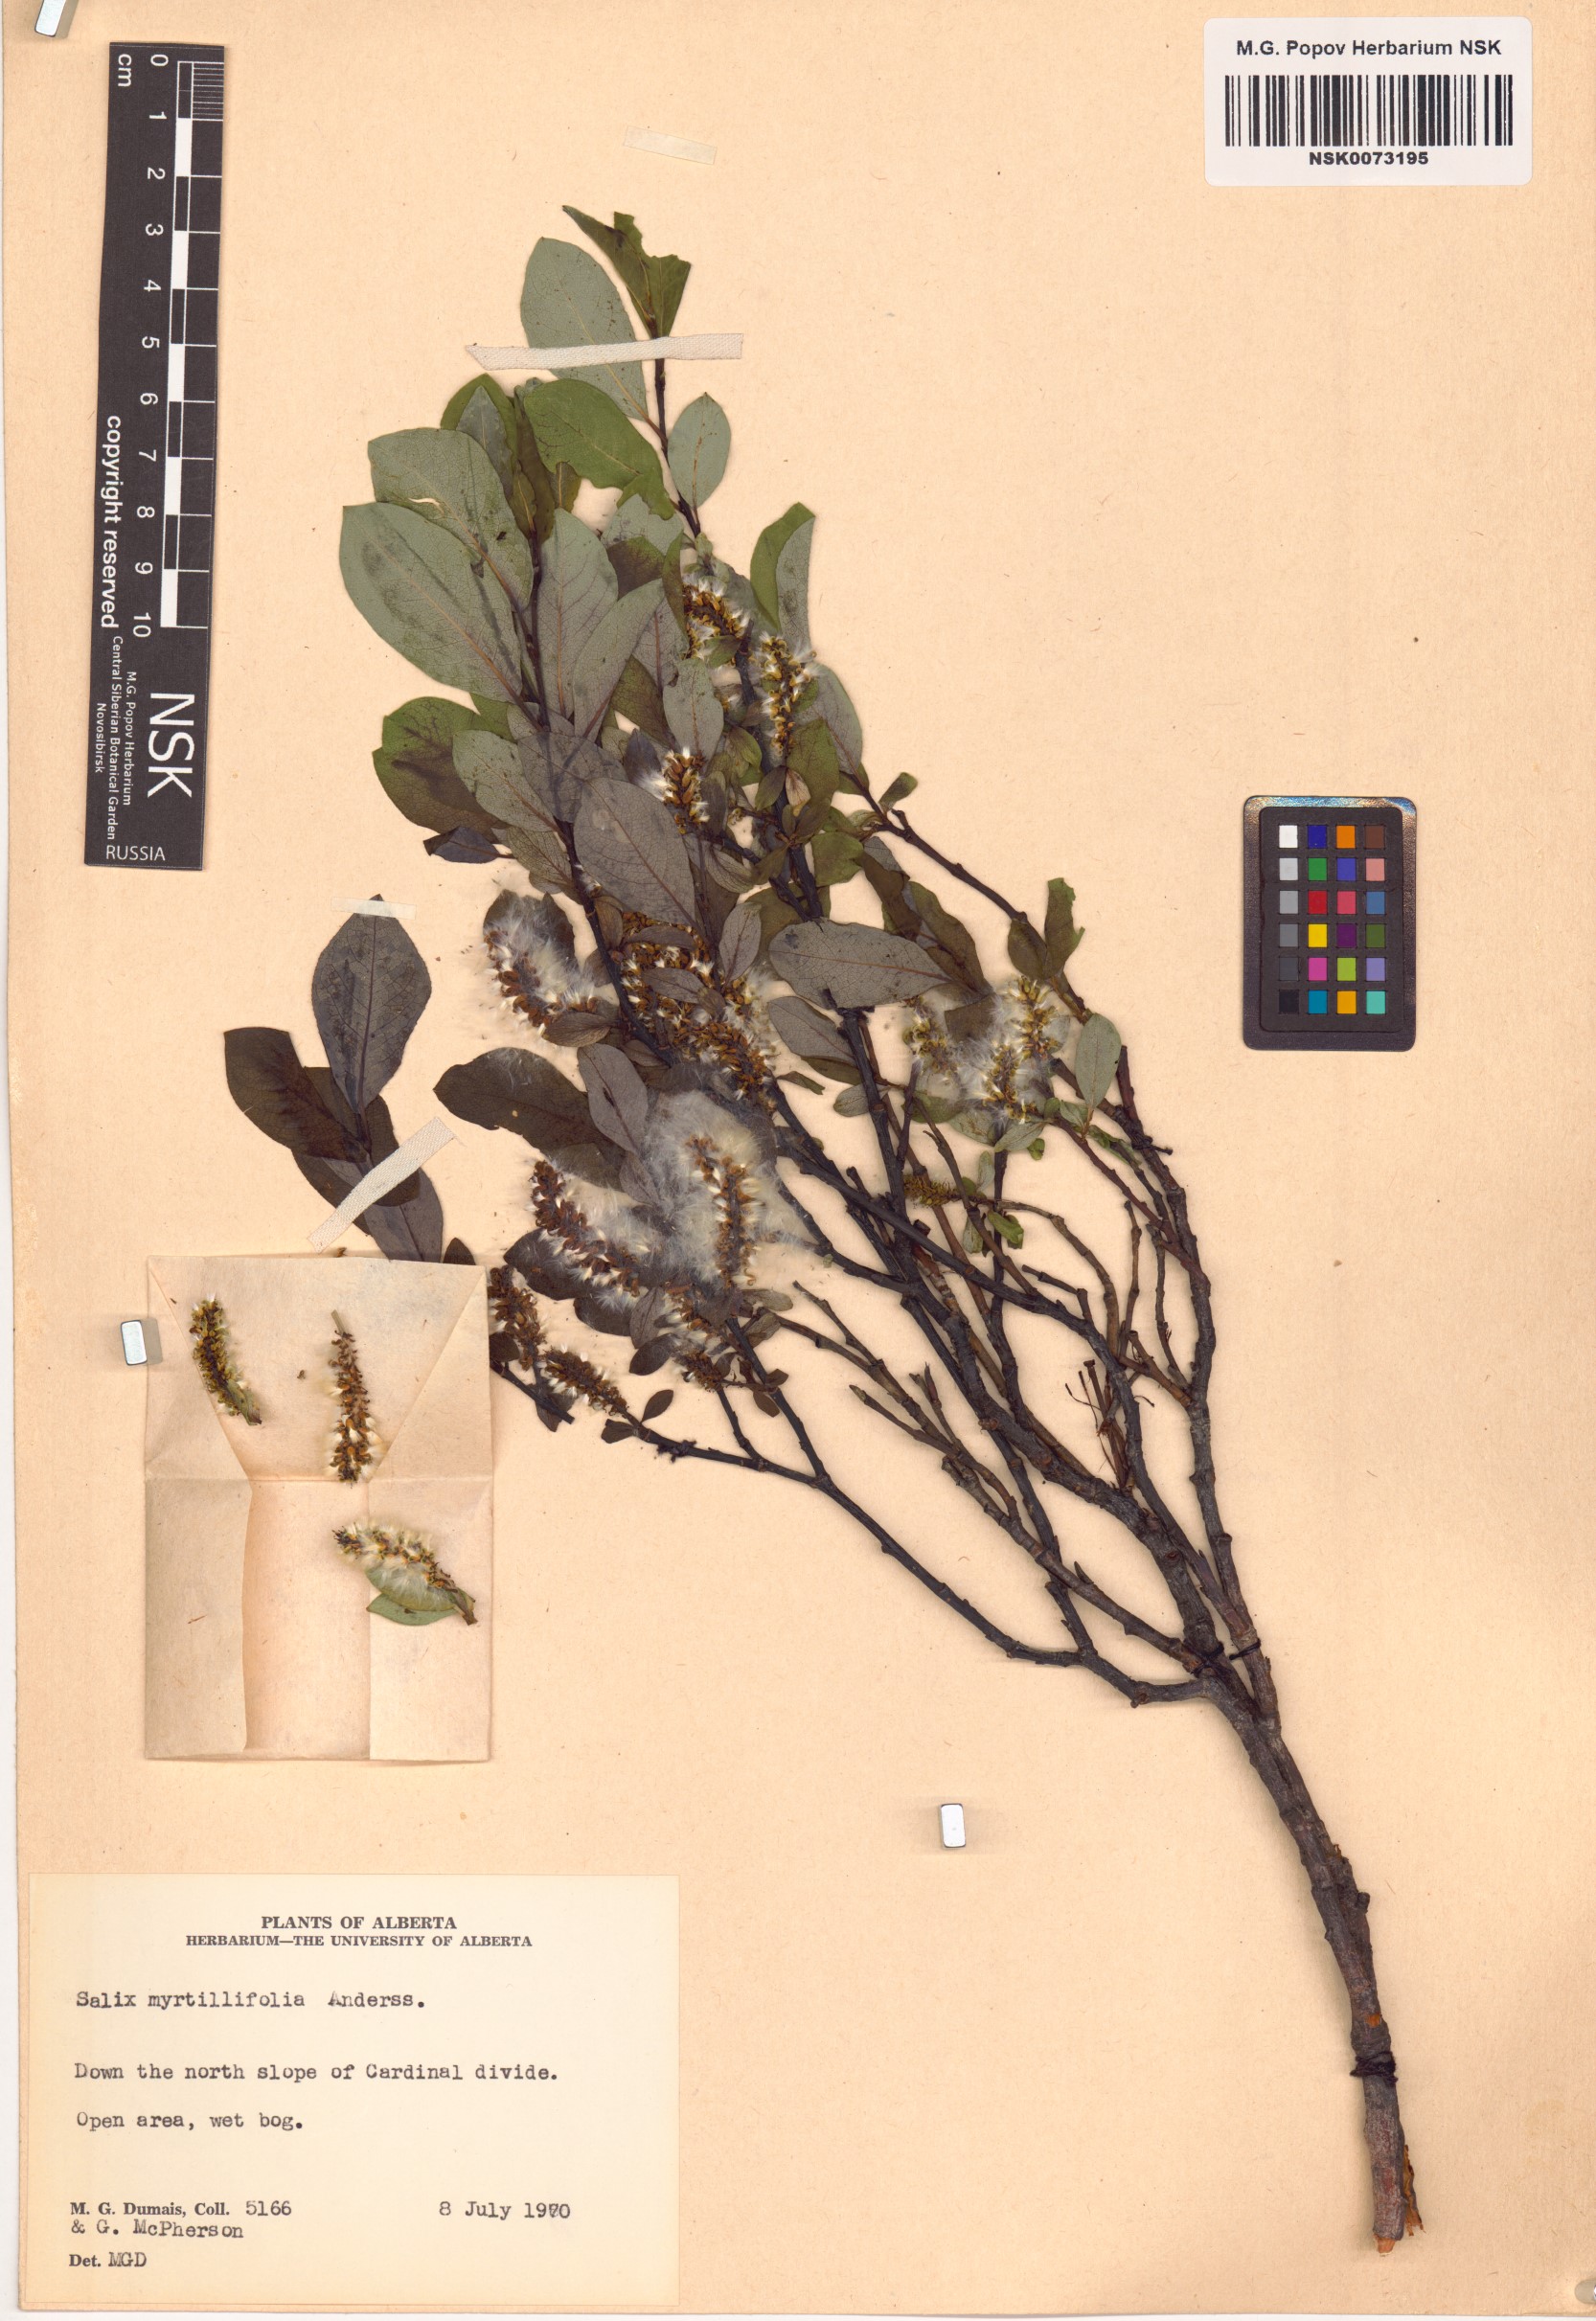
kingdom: Plantae
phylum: Tracheophyta
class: Magnoliopsida
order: Malpighiales
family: Salicaceae
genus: Salix
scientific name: Salix myrtillifolia
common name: Bilberry willow
